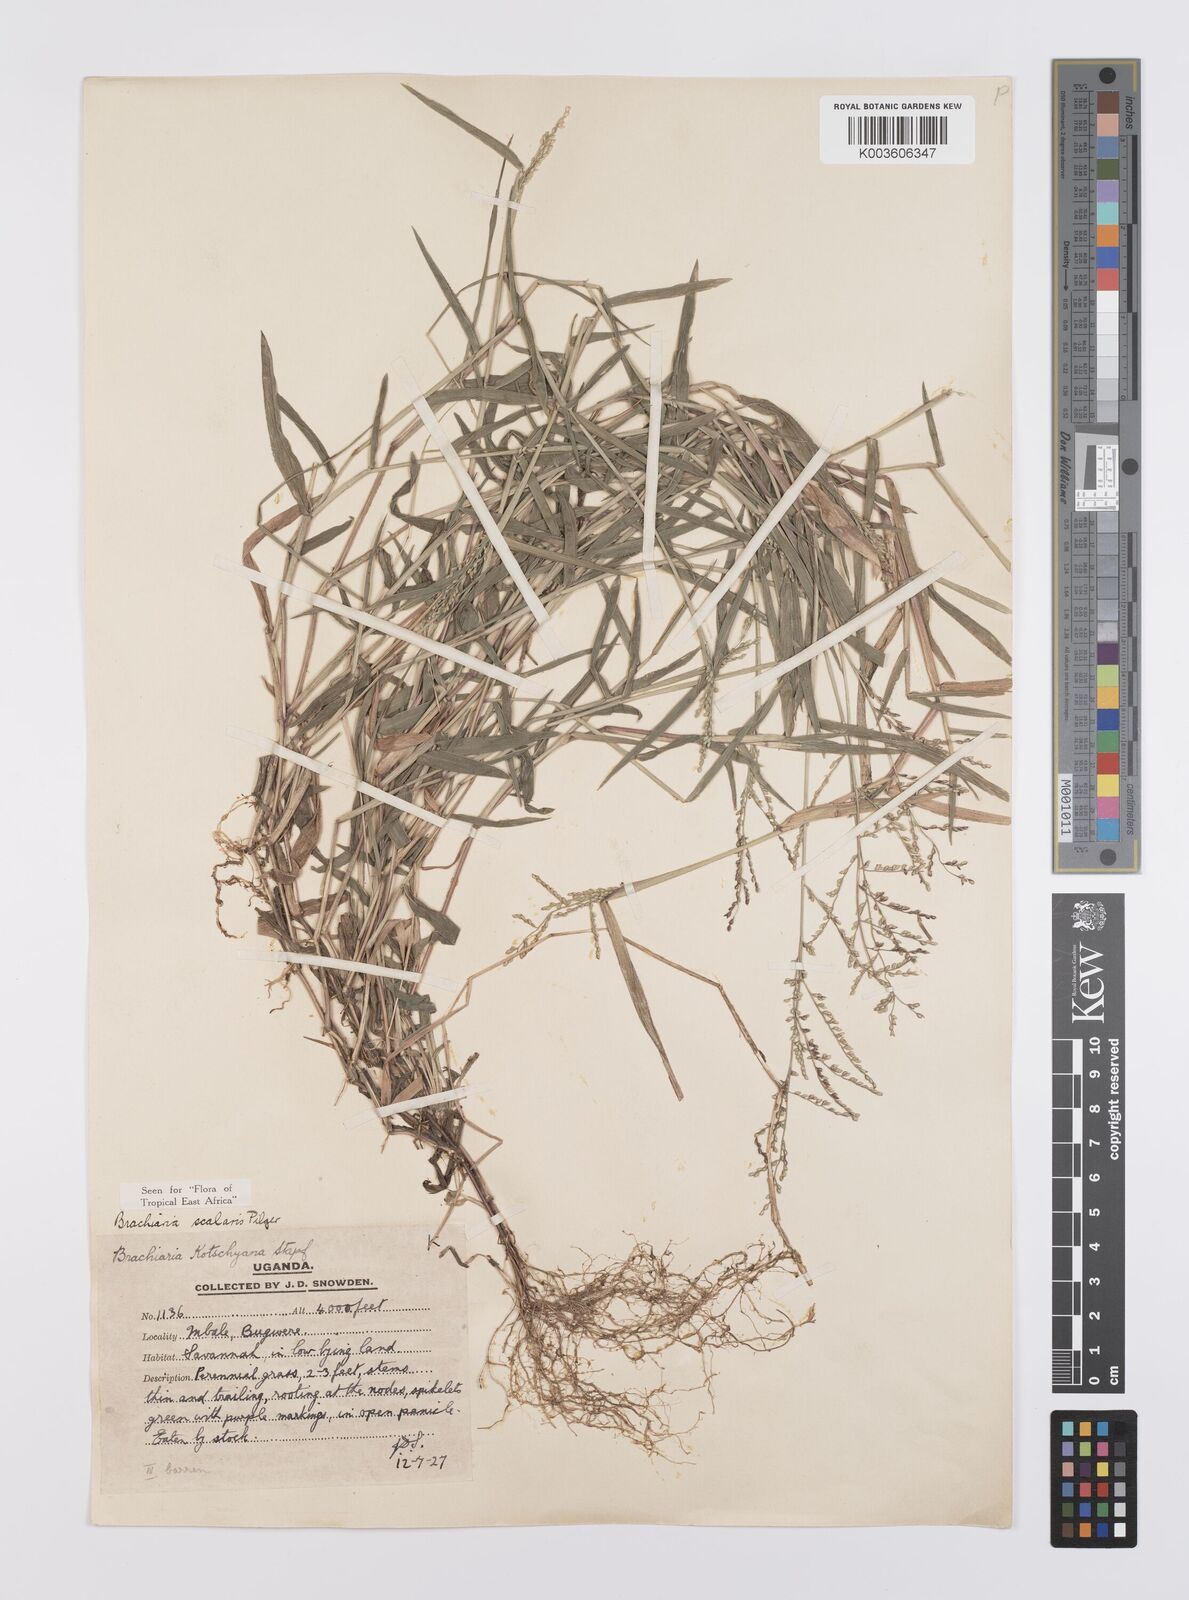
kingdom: Plantae
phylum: Tracheophyta
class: Liliopsida
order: Poales
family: Poaceae
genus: Urochloa
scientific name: Urochloa comata
